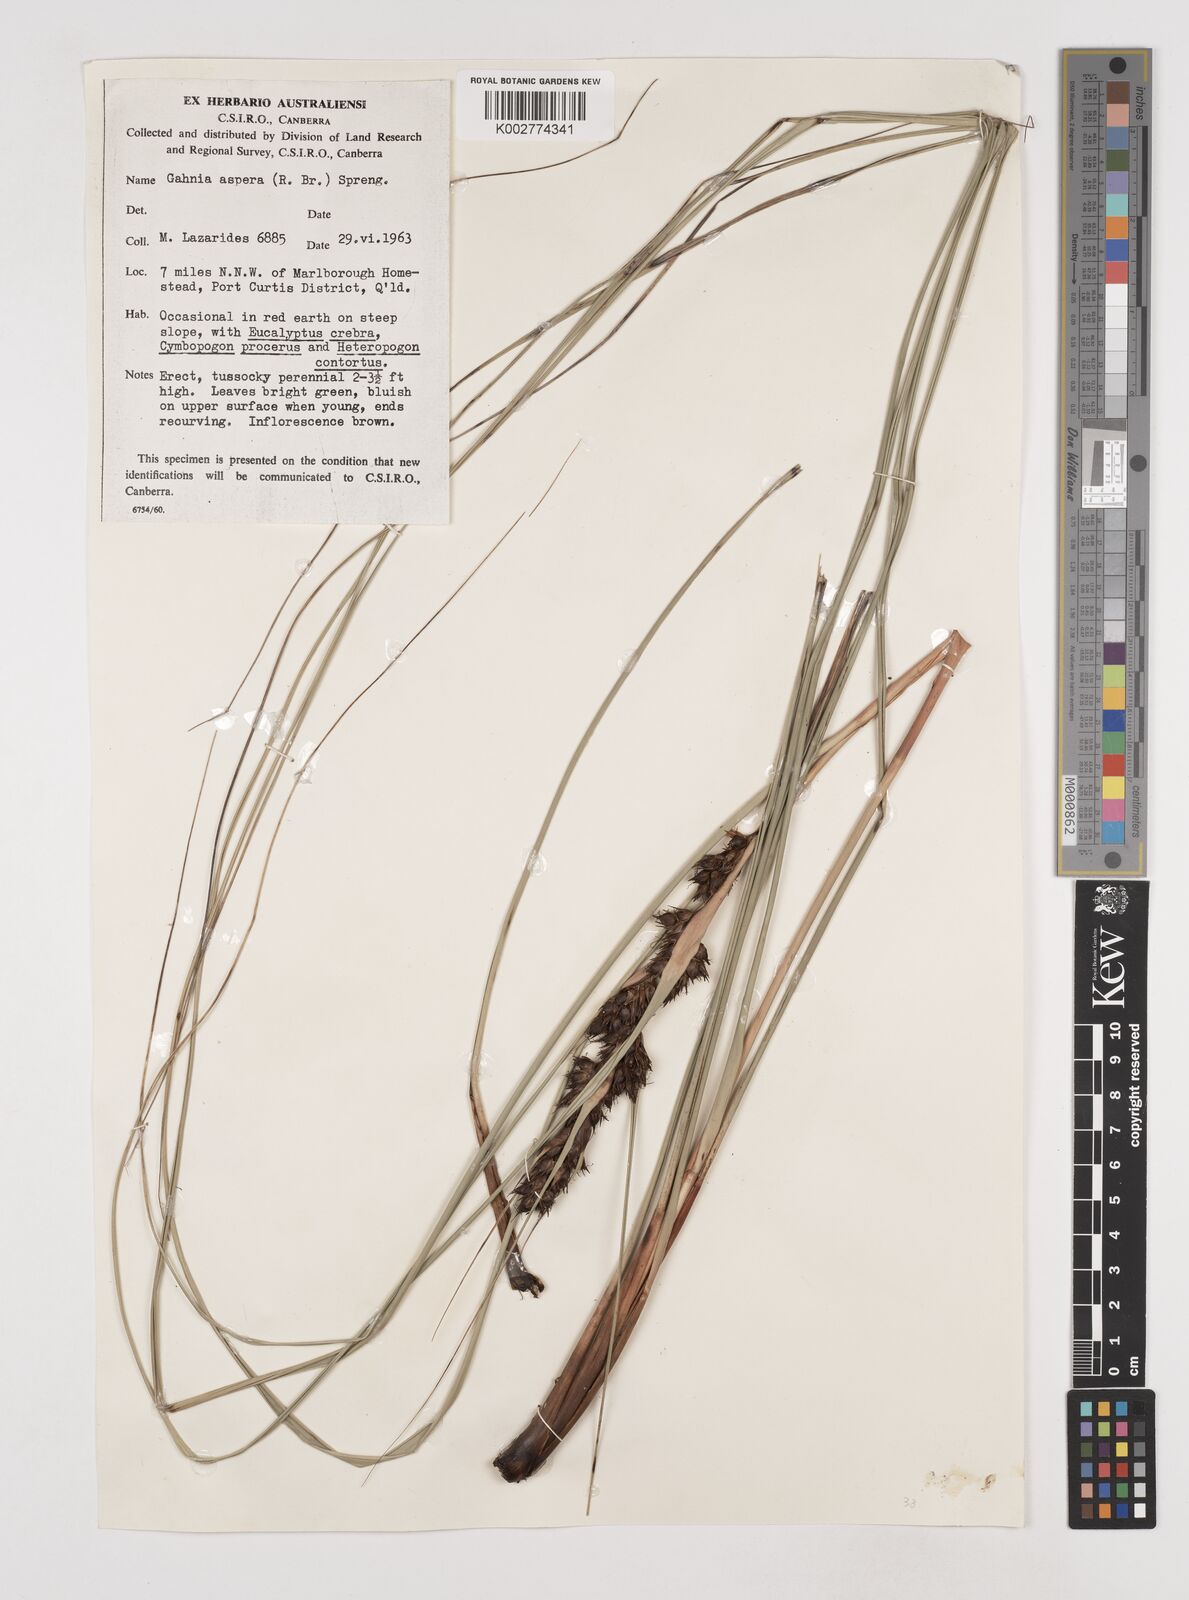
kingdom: Plantae
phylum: Tracheophyta
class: Liliopsida
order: Poales
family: Cyperaceae
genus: Gahnia
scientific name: Gahnia aspera
